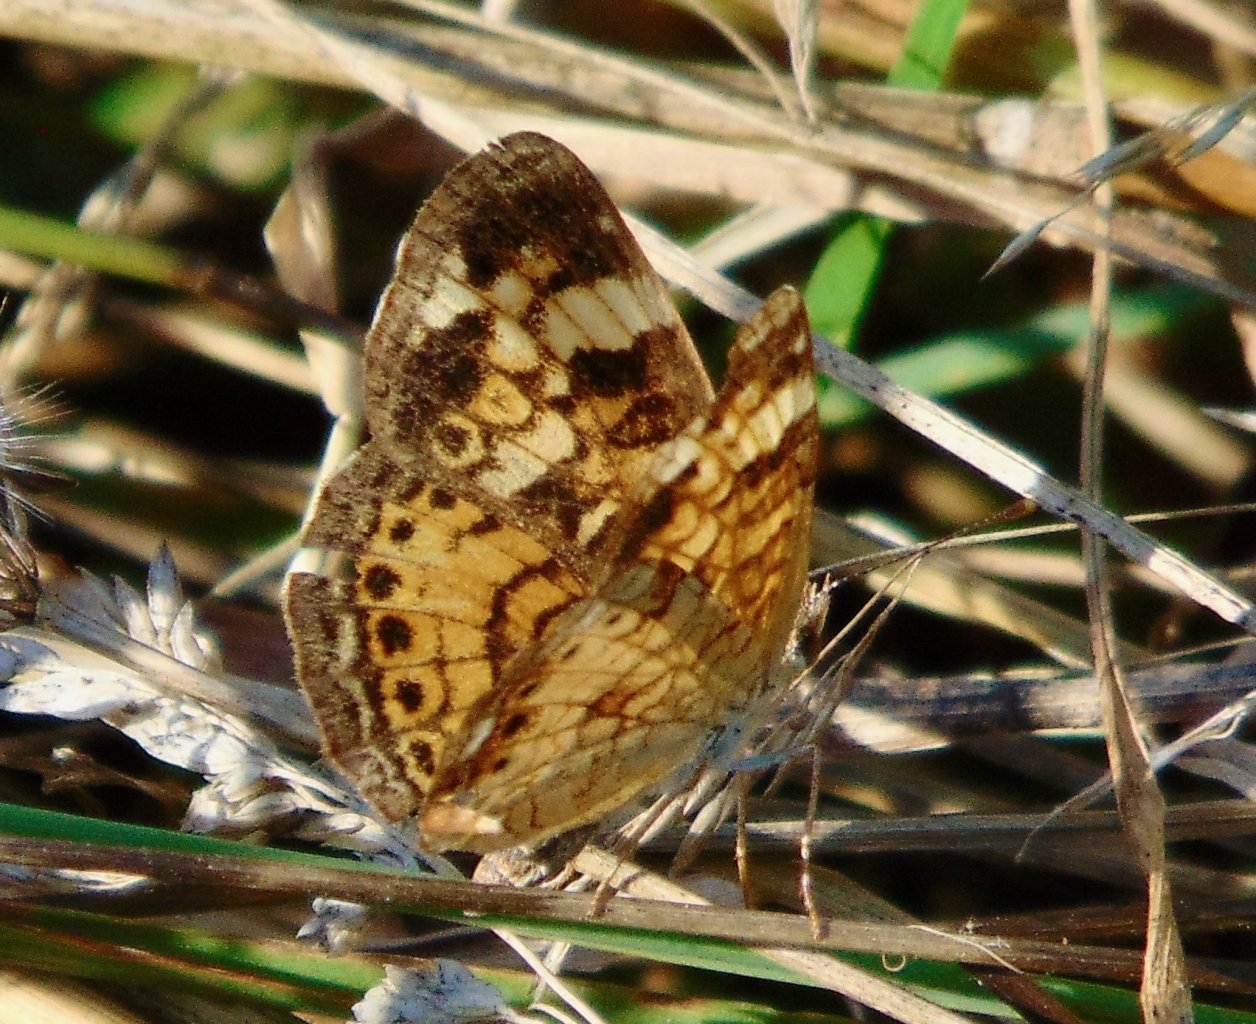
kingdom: Animalia
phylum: Arthropoda
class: Insecta
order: Lepidoptera
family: Nymphalidae
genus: Phyciodes
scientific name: Phyciodes tharos
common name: Pearl Crescent
